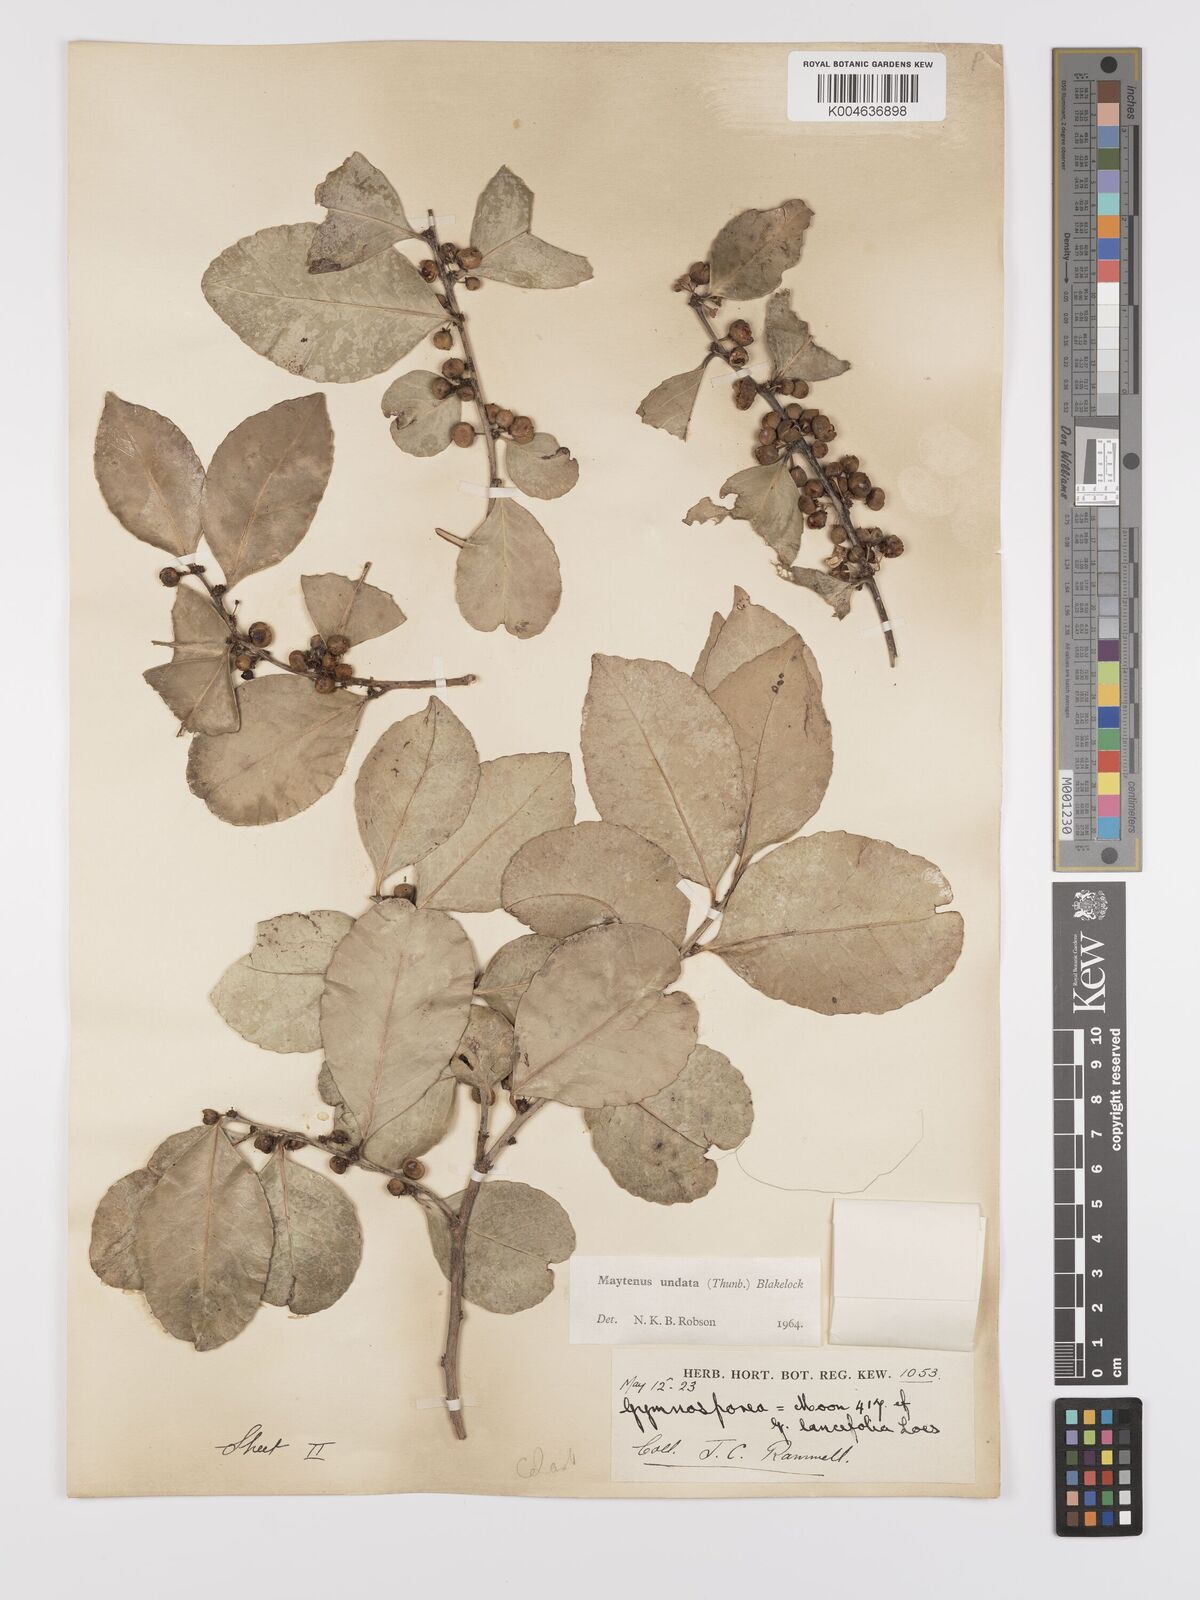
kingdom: Plantae
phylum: Tracheophyta
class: Magnoliopsida
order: Celastrales
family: Celastraceae
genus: Gymnosporia
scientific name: Gymnosporia undata
